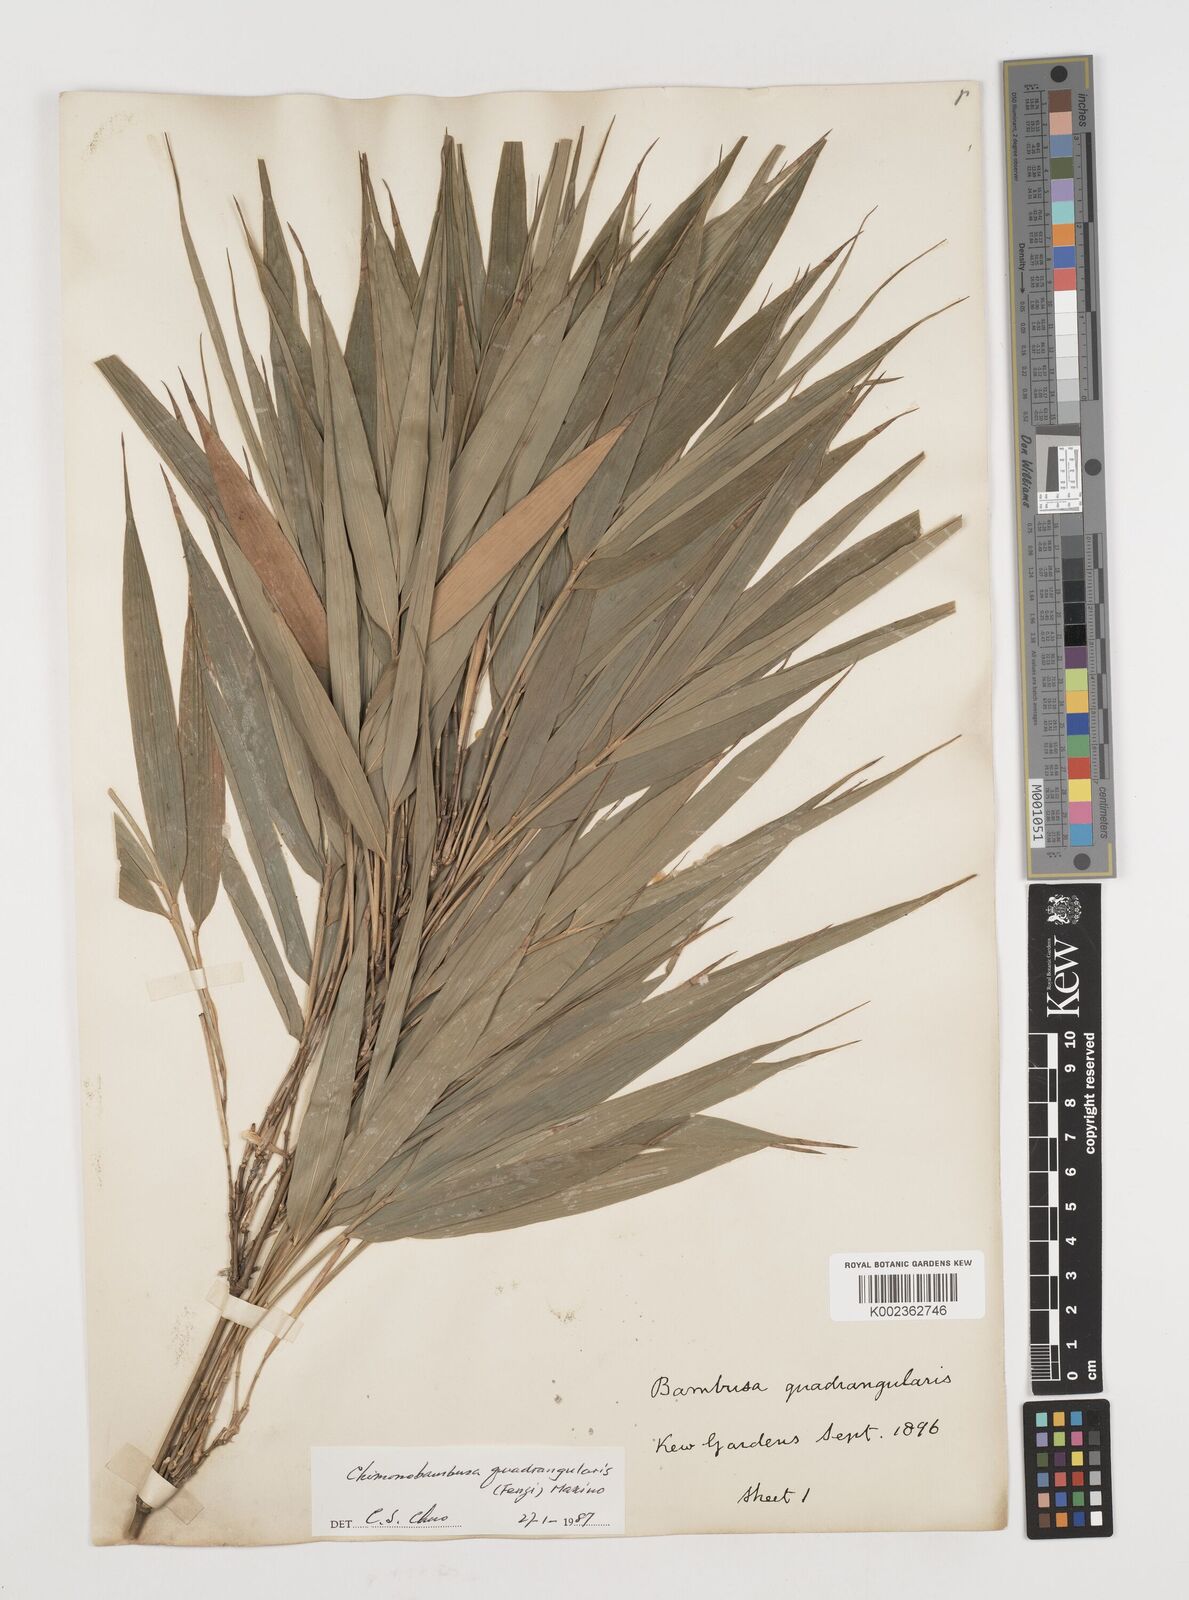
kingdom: Plantae
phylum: Tracheophyta
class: Liliopsida
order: Poales
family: Poaceae
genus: Chimonobambusa
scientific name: Chimonobambusa quadrangularis
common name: Square-stemmed bamboo
